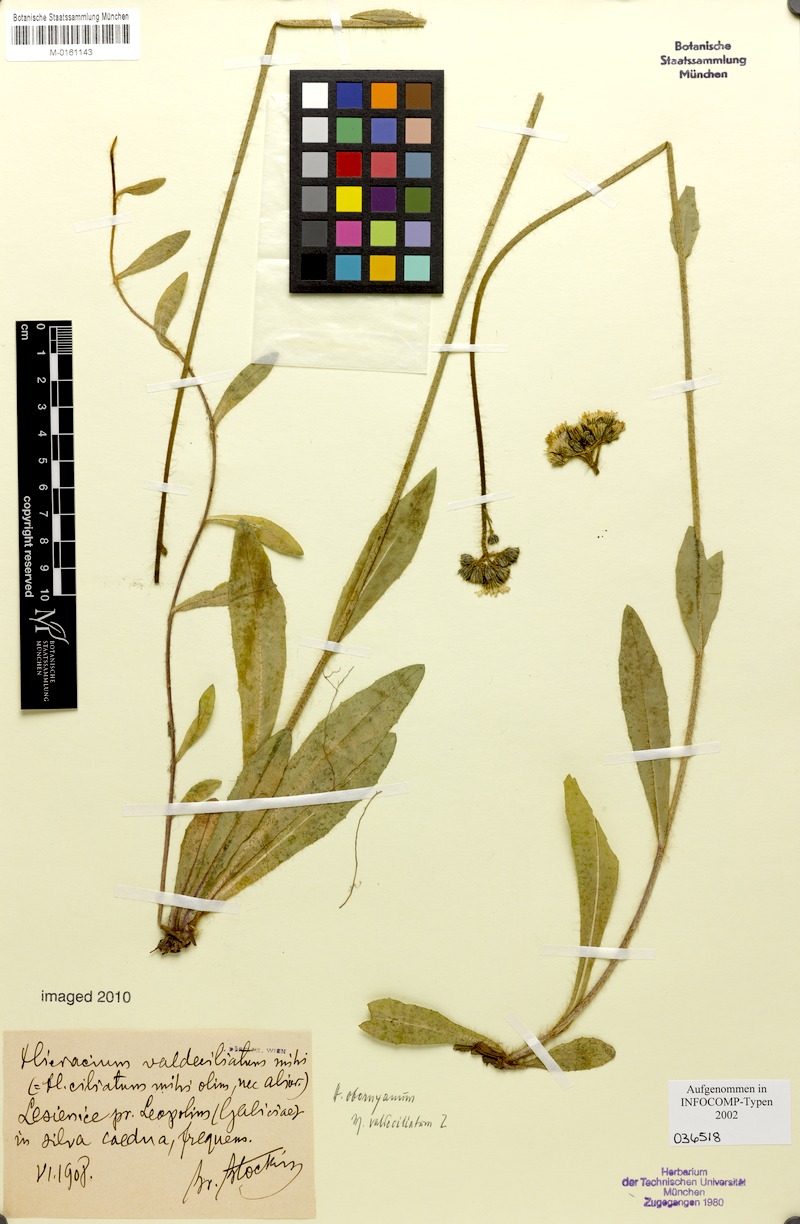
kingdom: Plantae
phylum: Tracheophyta
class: Magnoliopsida
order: Asterales
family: Asteraceae
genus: Pilosella
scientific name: Pilosella polymastix
